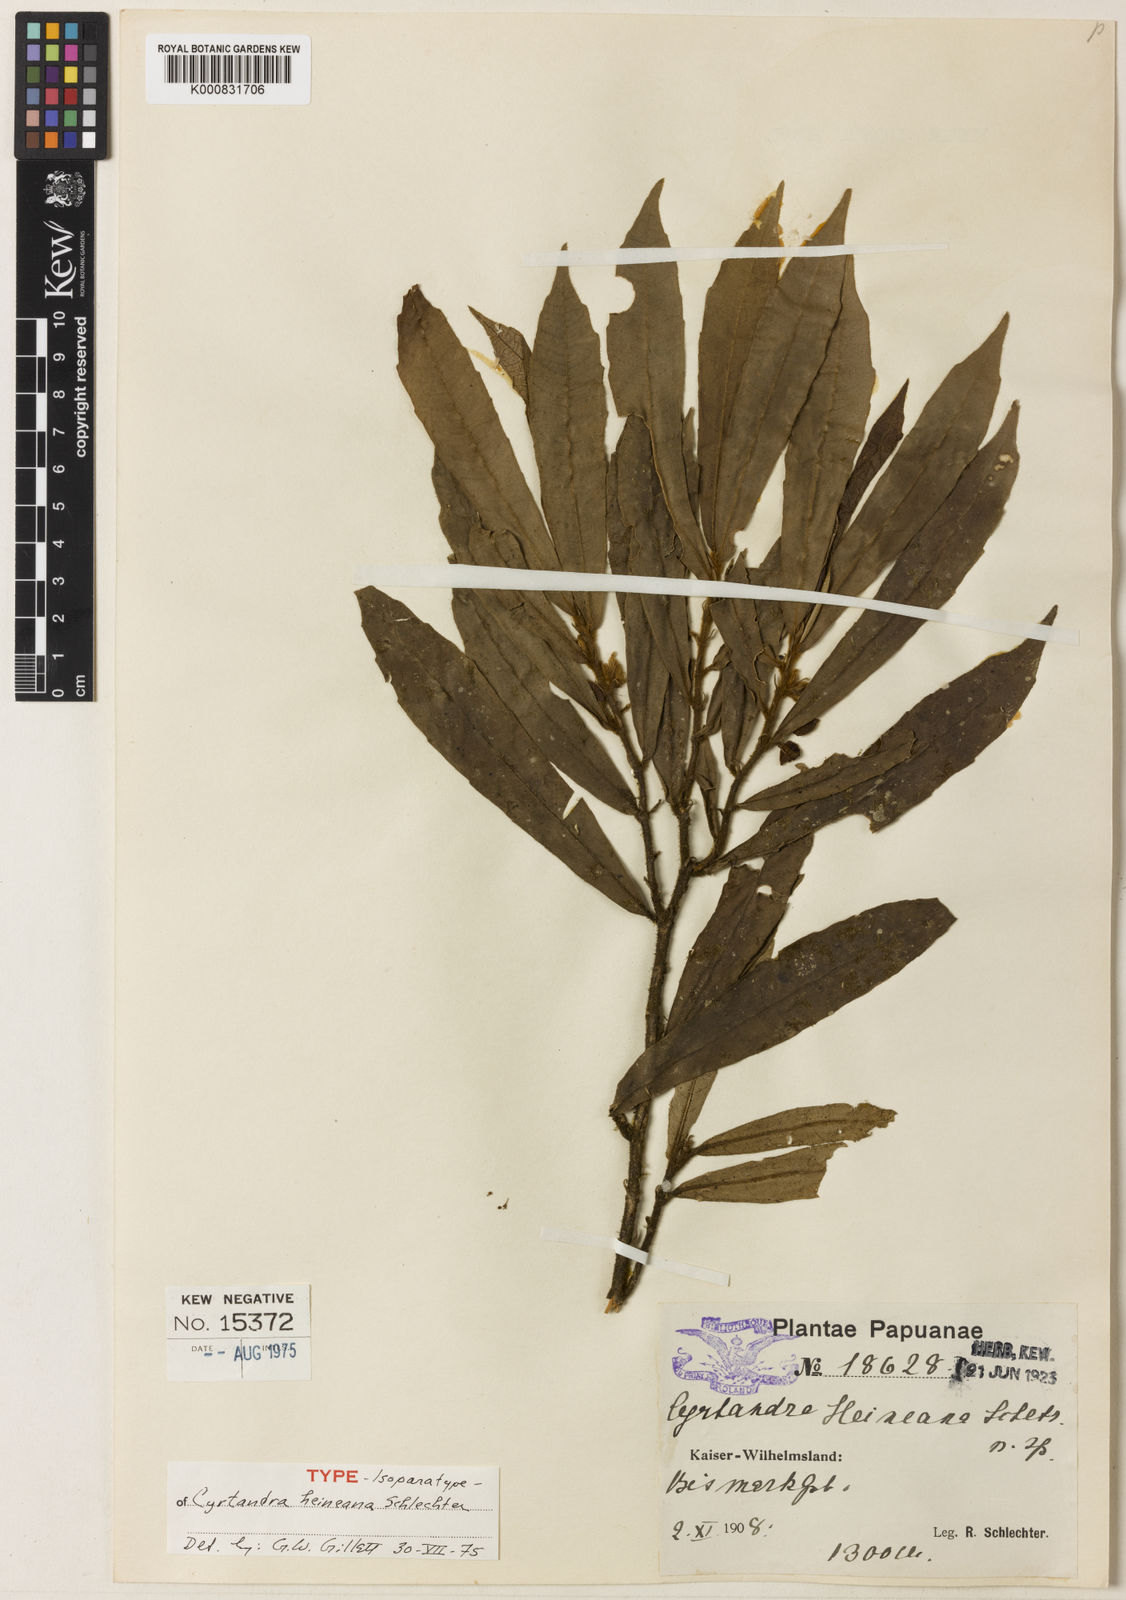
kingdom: Plantae
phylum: Tracheophyta
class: Magnoliopsida
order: Lamiales
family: Gesneriaceae
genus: Cyrtandra
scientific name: Cyrtandra heineana
